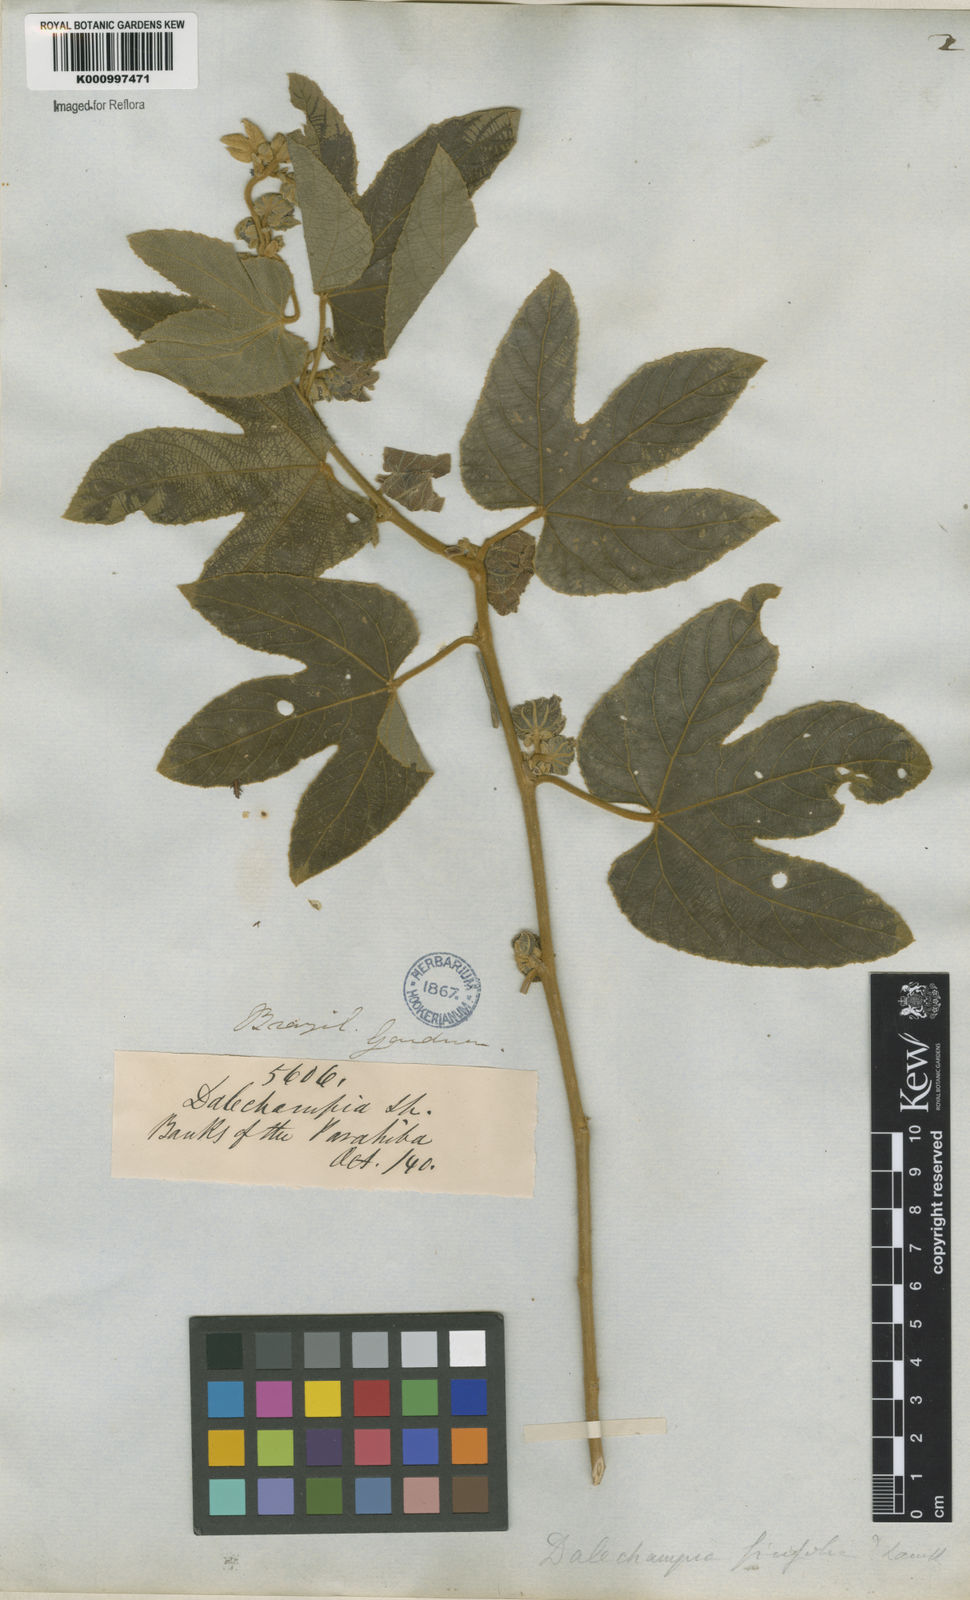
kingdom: Plantae
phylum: Tracheophyta
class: Magnoliopsida
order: Malpighiales
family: Euphorbiaceae
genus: Dalechampia
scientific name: Dalechampia ficifolia
